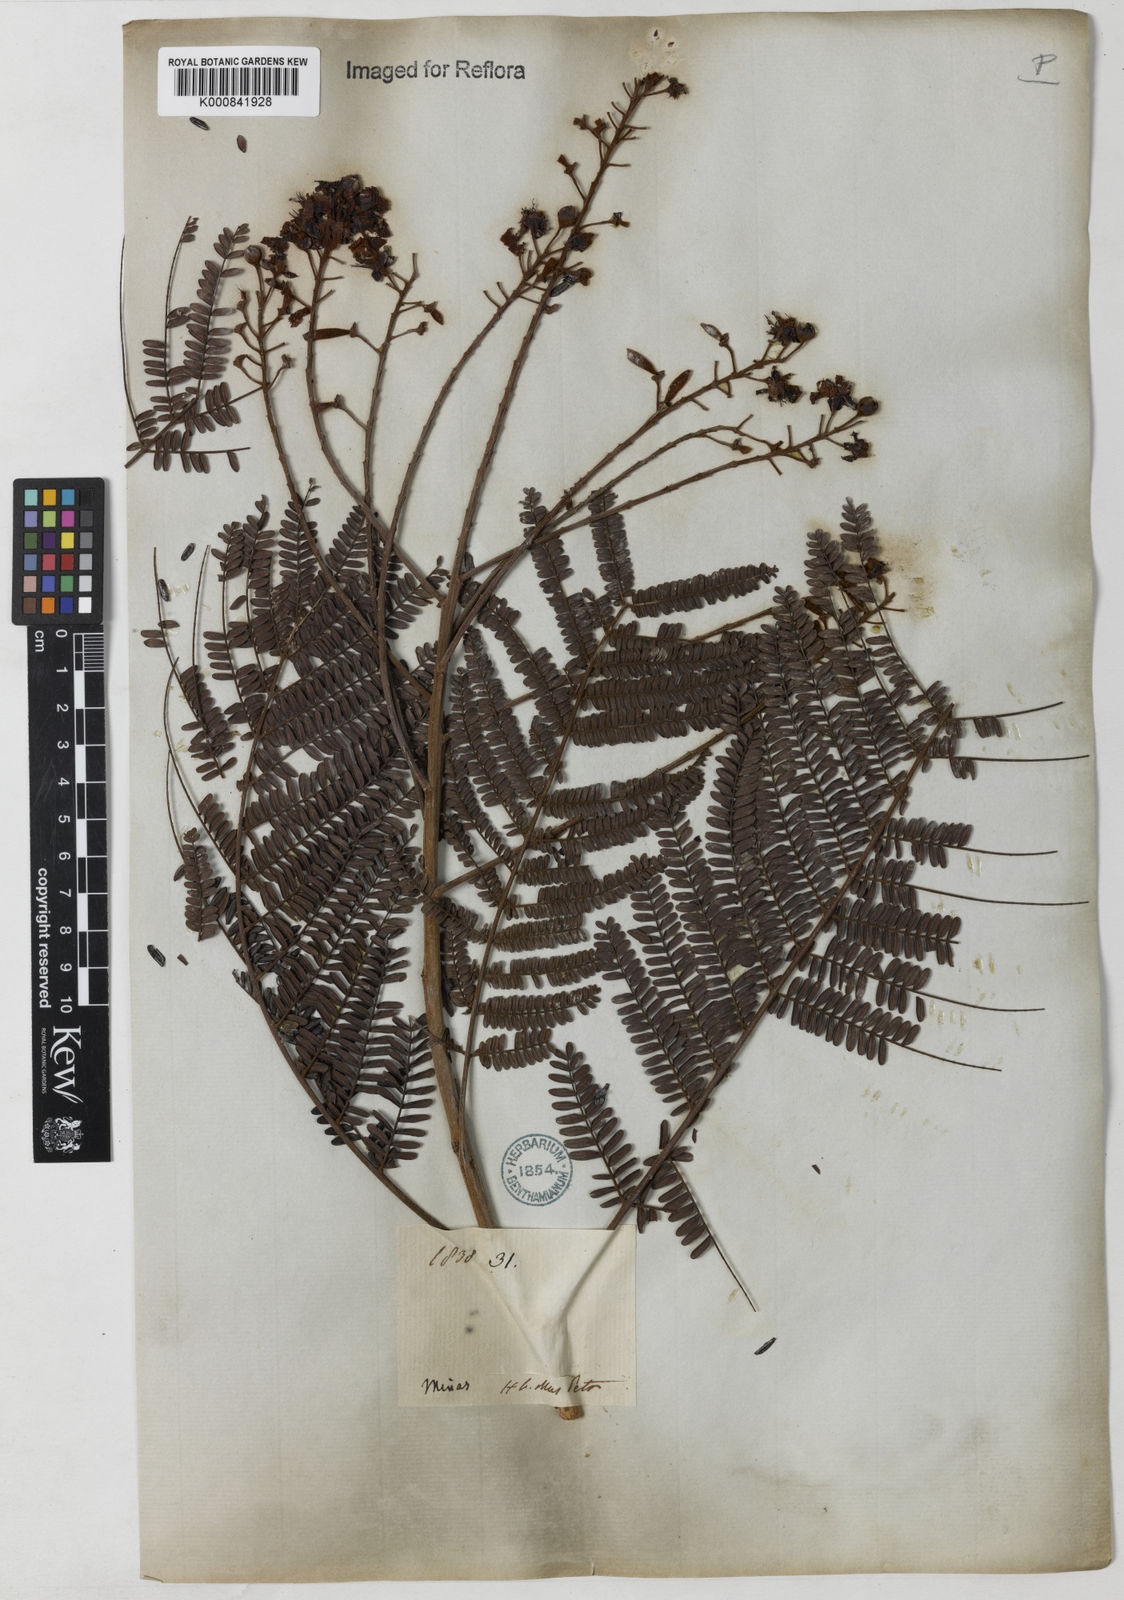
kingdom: Plantae
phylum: Tracheophyta
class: Magnoliopsida
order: Fabales
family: Fabaceae
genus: Peltophorum
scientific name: Peltophorum dubium
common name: Horsebush
